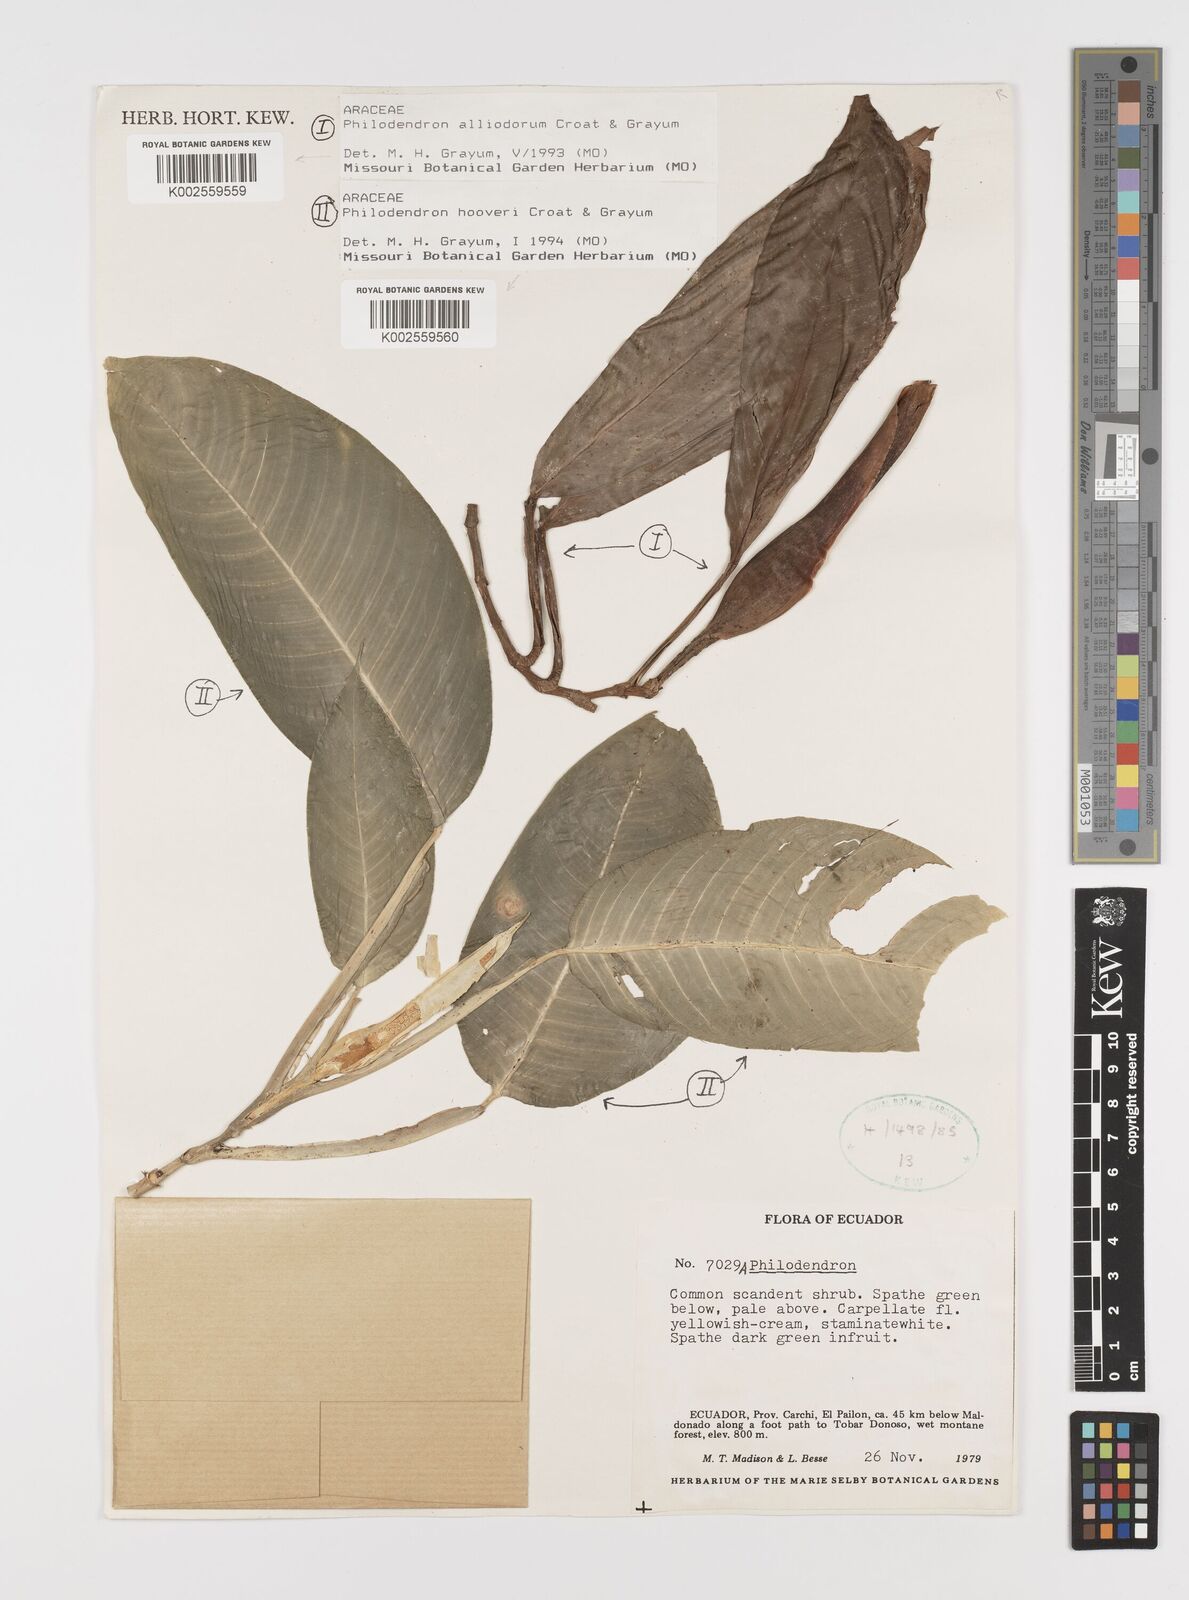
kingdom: Plantae
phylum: Tracheophyta
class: Liliopsida
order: Alismatales
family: Araceae
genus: Philodendron
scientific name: Philodendron hooveri
